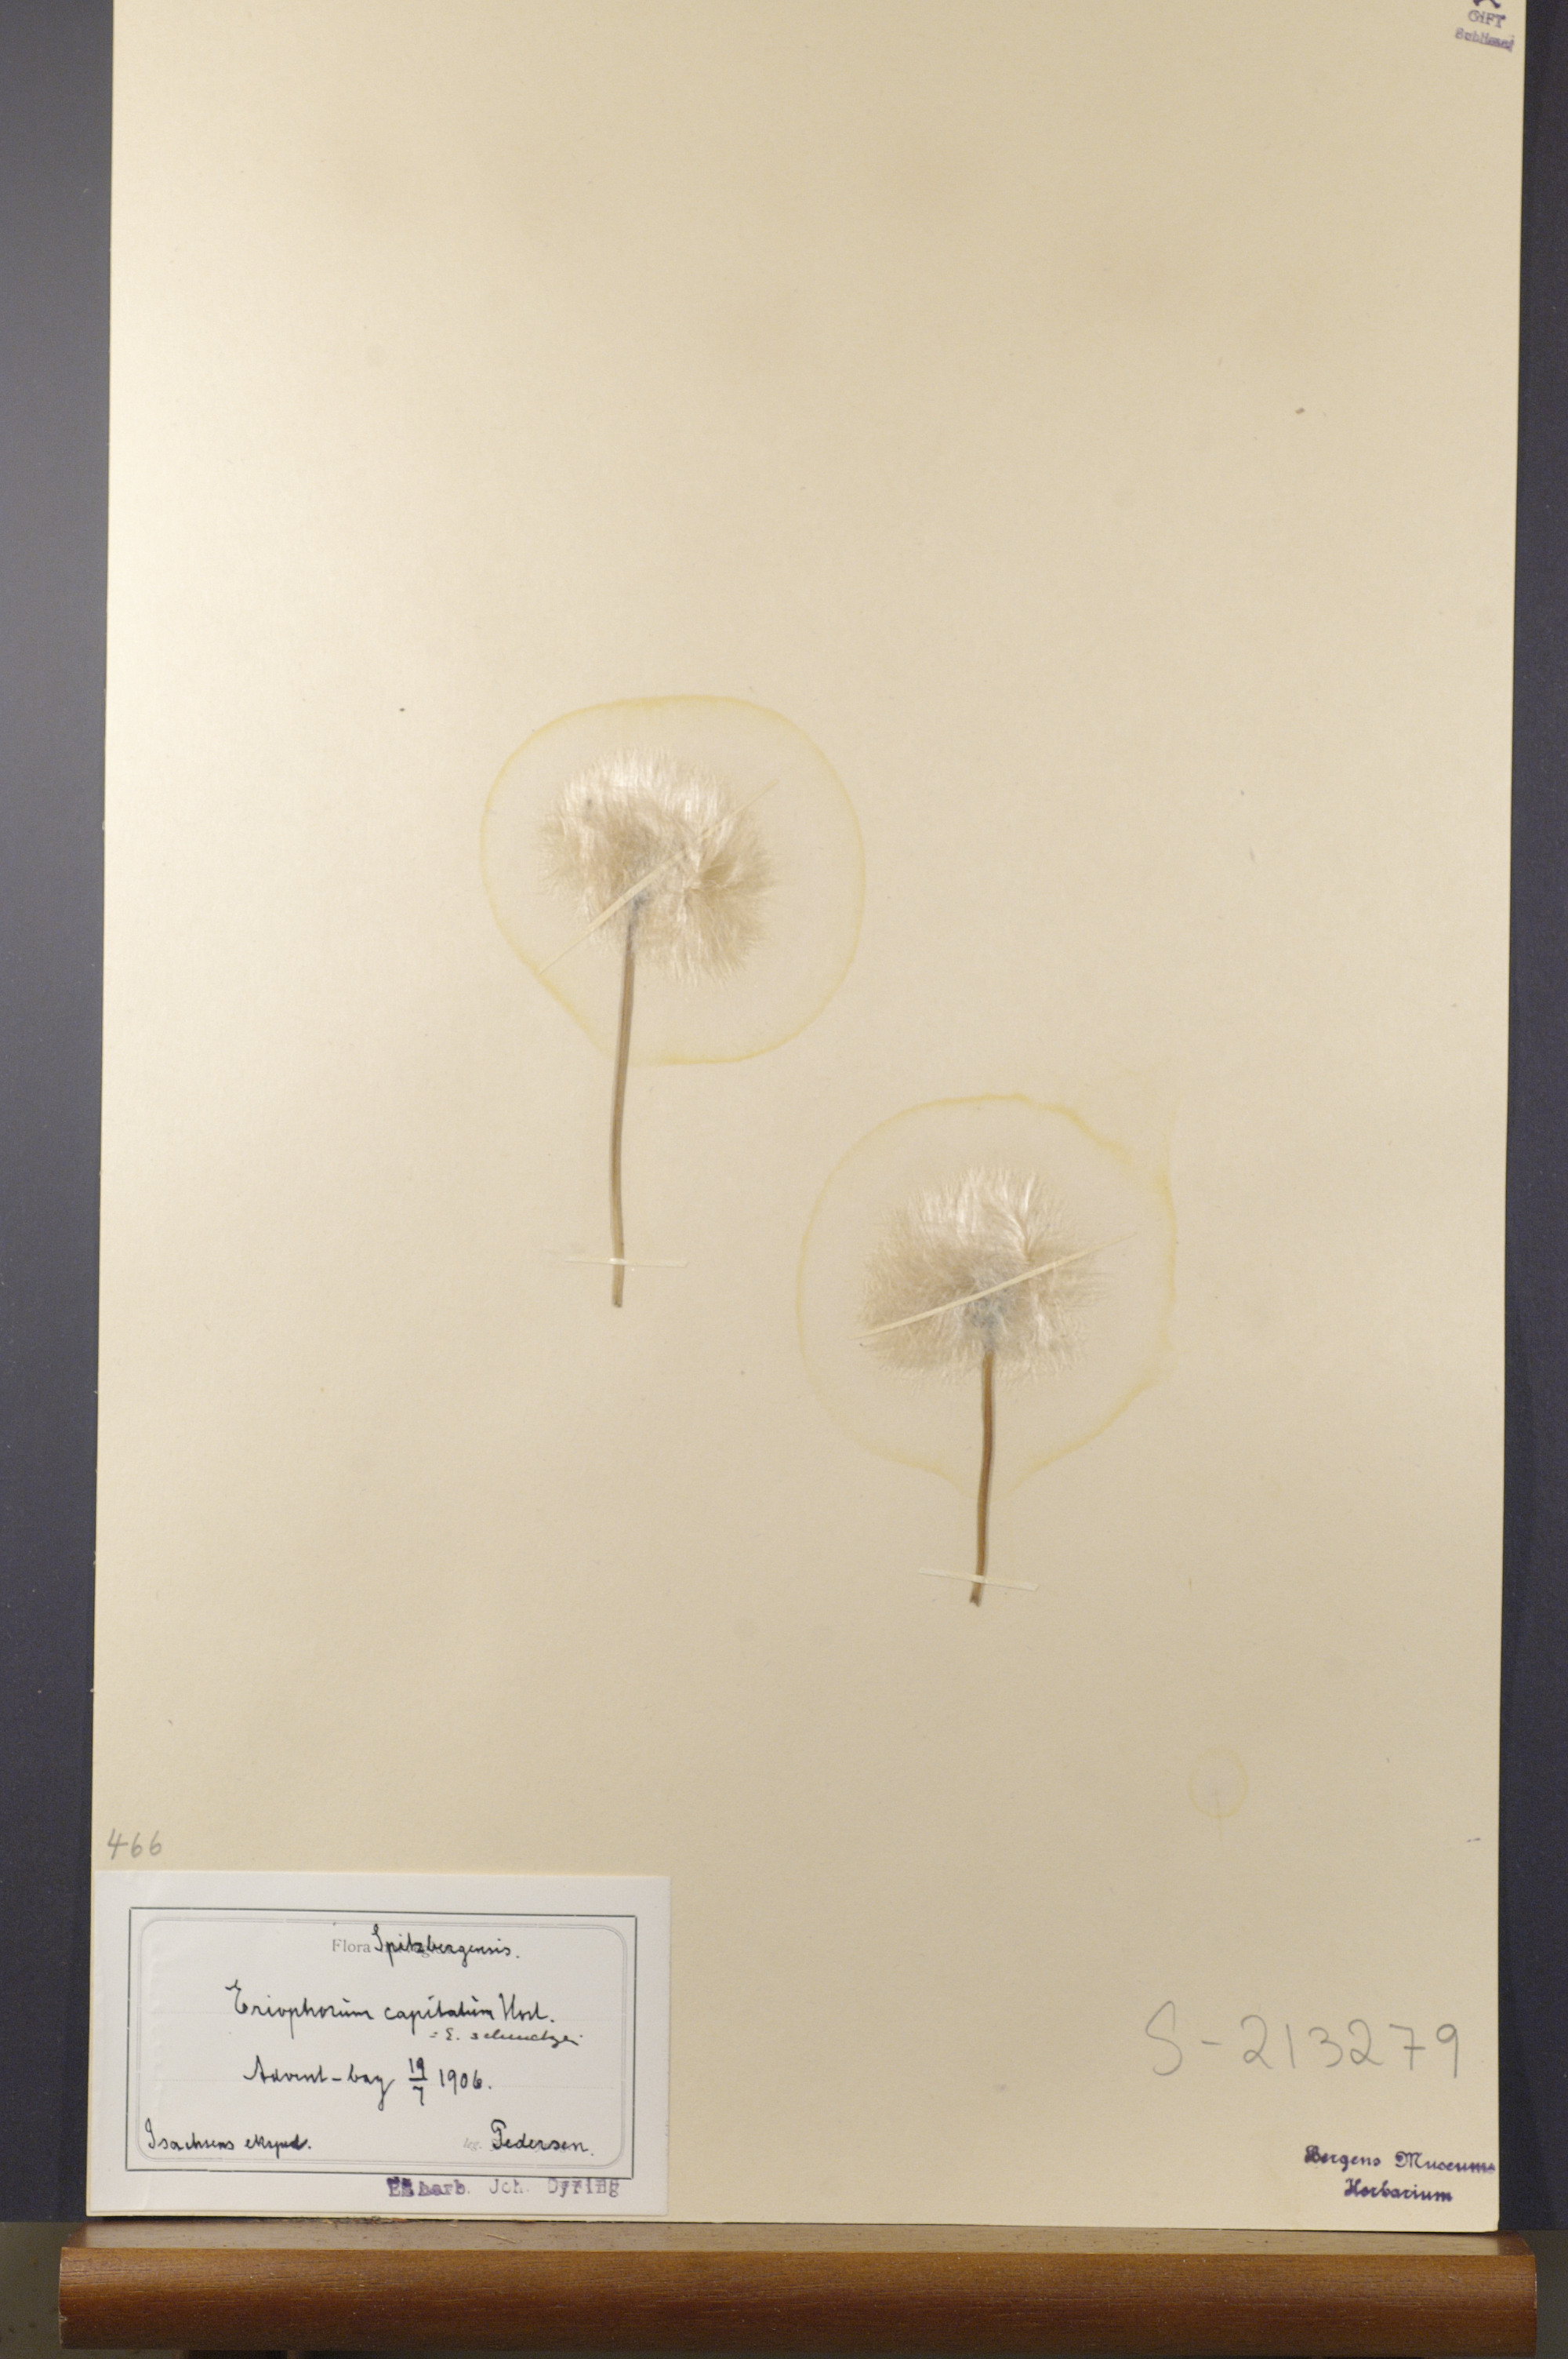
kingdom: Plantae
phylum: Tracheophyta
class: Liliopsida
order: Poales
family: Cyperaceae
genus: Eriophorum
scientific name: Eriophorum scheuchzeri
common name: Scheuchzer's cottongrass
